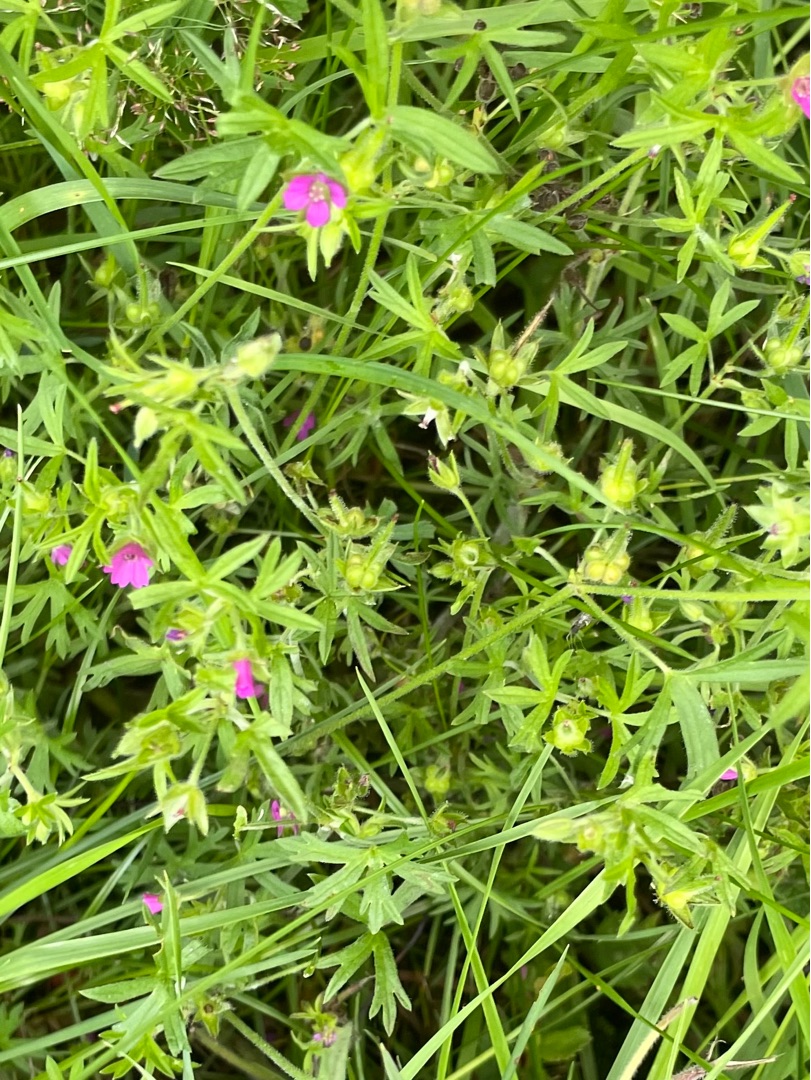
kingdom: Plantae
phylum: Tracheophyta
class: Magnoliopsida
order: Geraniales
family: Geraniaceae
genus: Geranium
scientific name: Geranium dissectum
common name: Kløftet storkenæb
